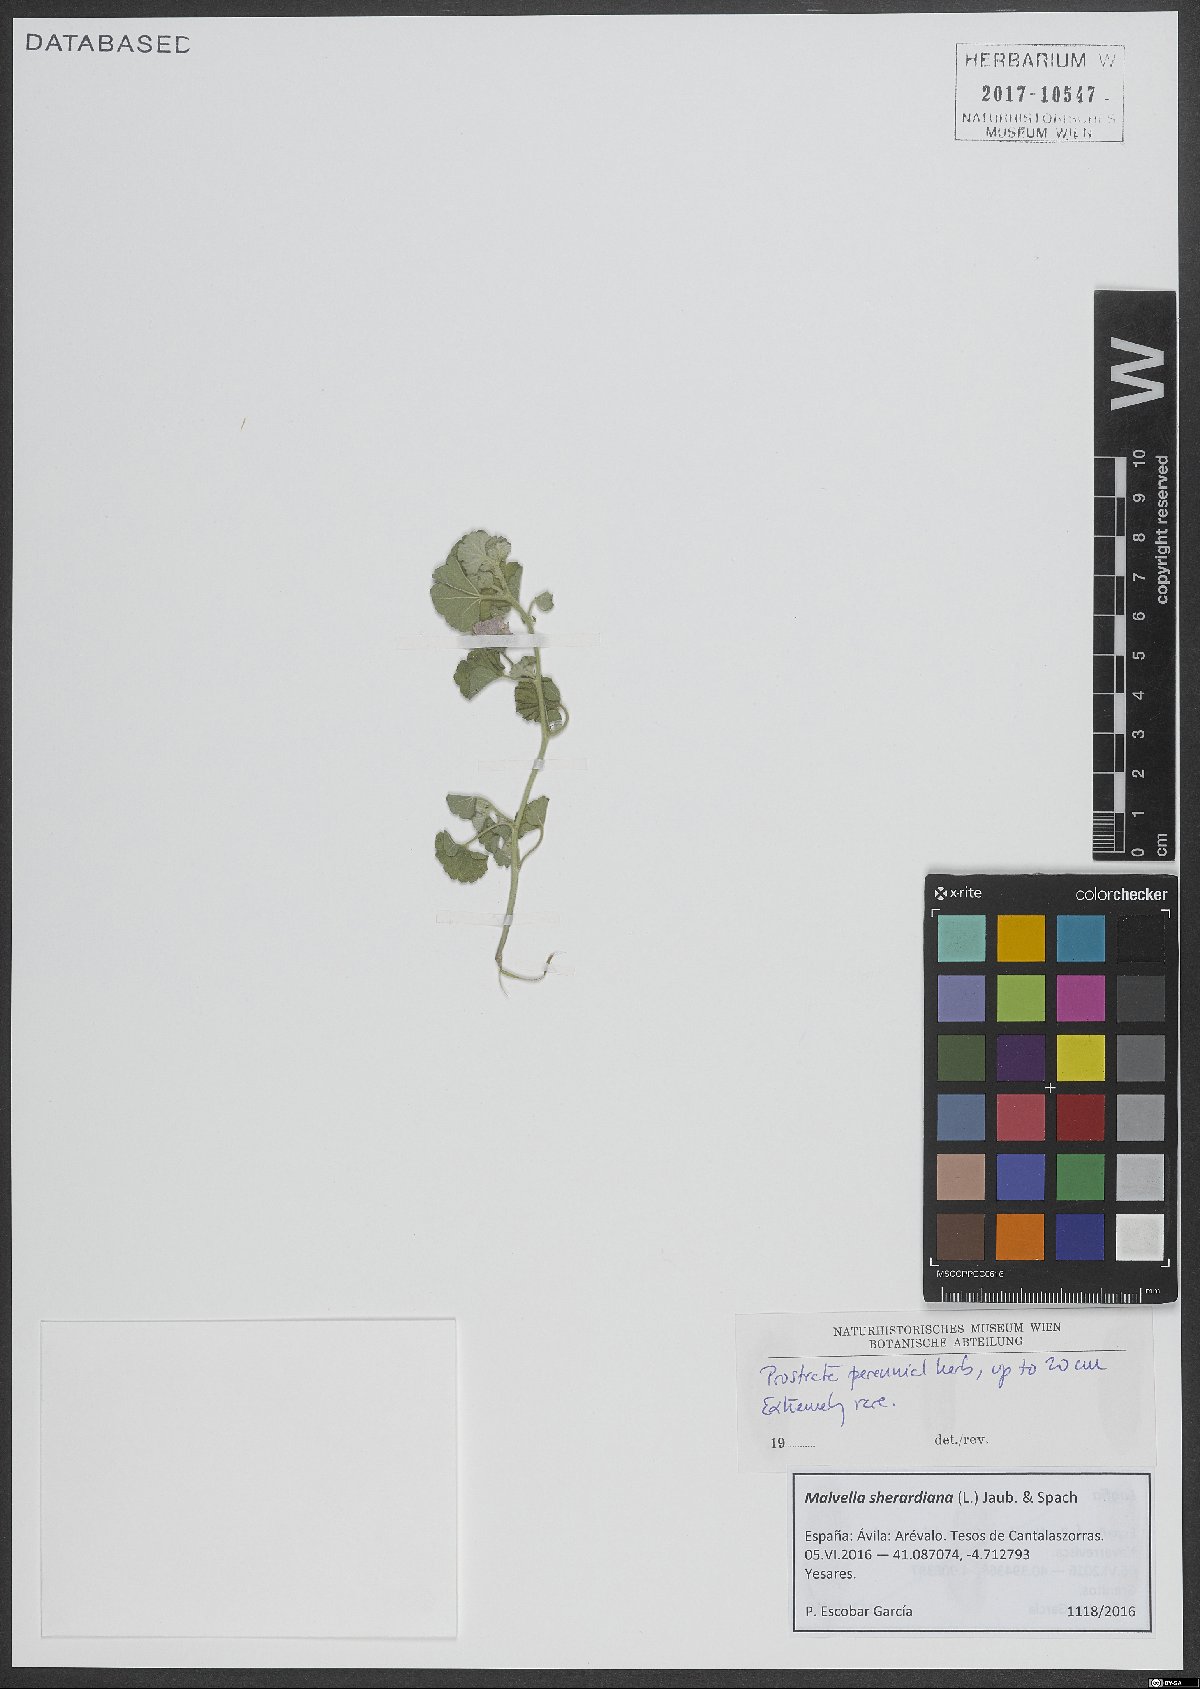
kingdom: Plantae
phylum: Tracheophyta
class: Magnoliopsida
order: Malvales
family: Malvaceae
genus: Malvella
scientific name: Malvella sherardiana
